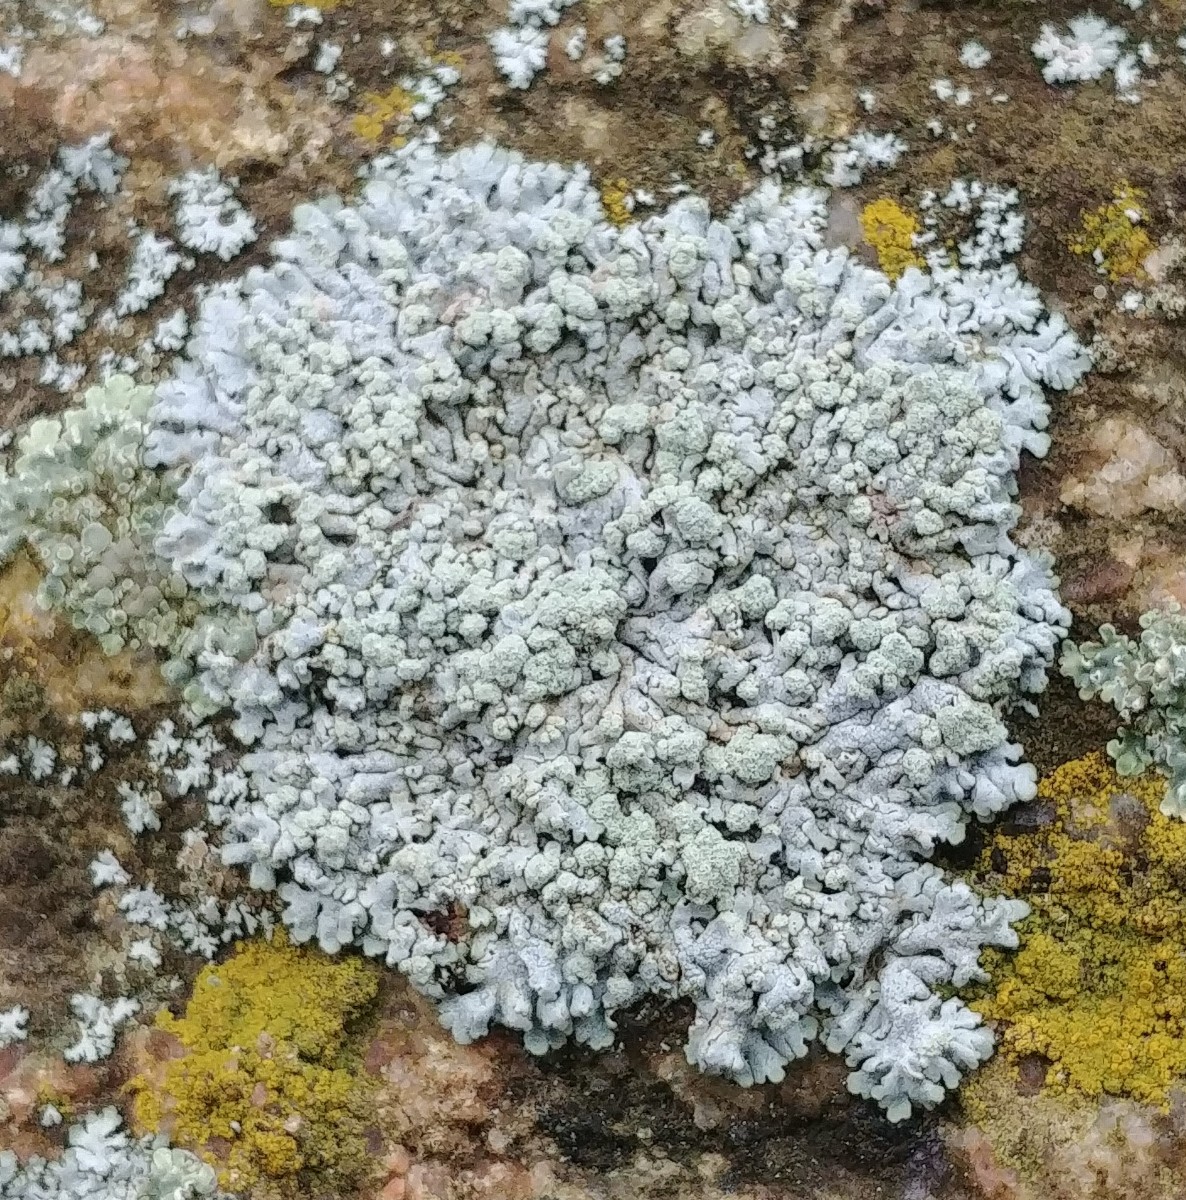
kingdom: Fungi
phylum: Ascomycota
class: Lecanoromycetes
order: Caliciales
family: Physciaceae
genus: Physcia
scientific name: Physcia caesia
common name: blågrå rosetlav
